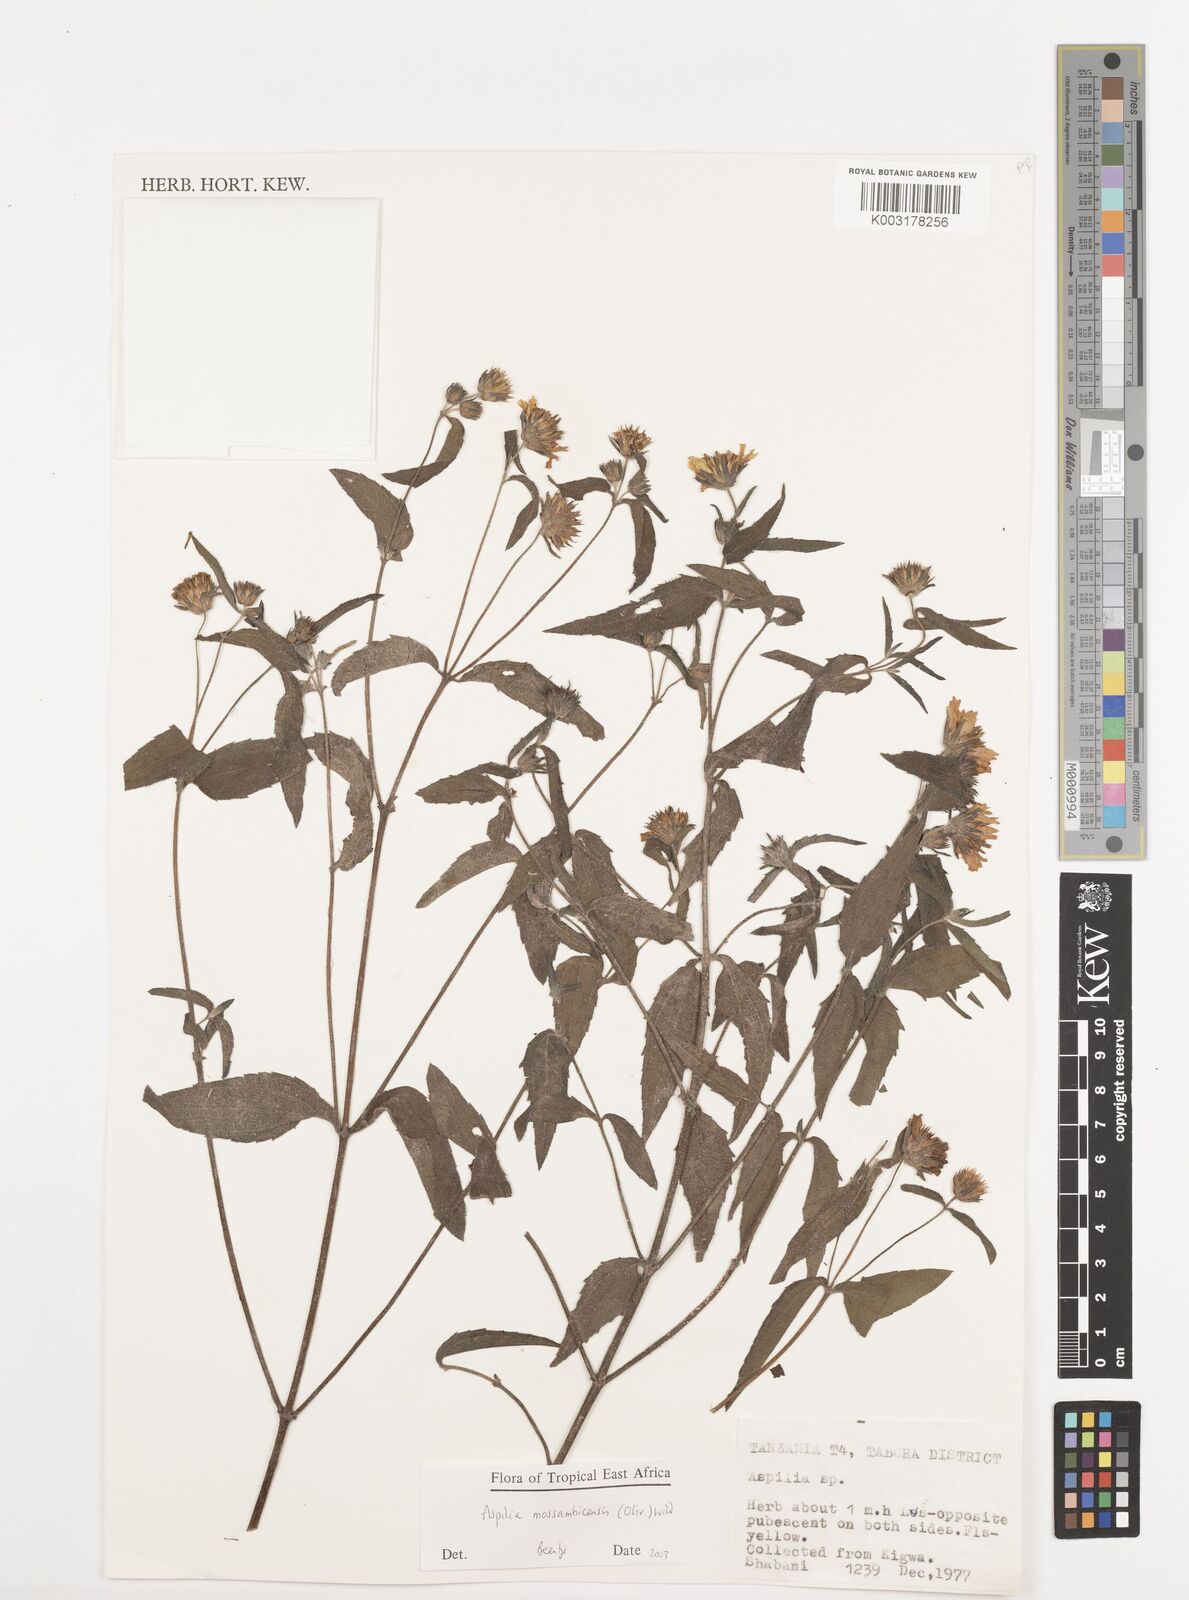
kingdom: Plantae
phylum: Tracheophyta
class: Magnoliopsida
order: Asterales
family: Asteraceae
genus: Aspilia
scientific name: Aspilia mossambicensis
